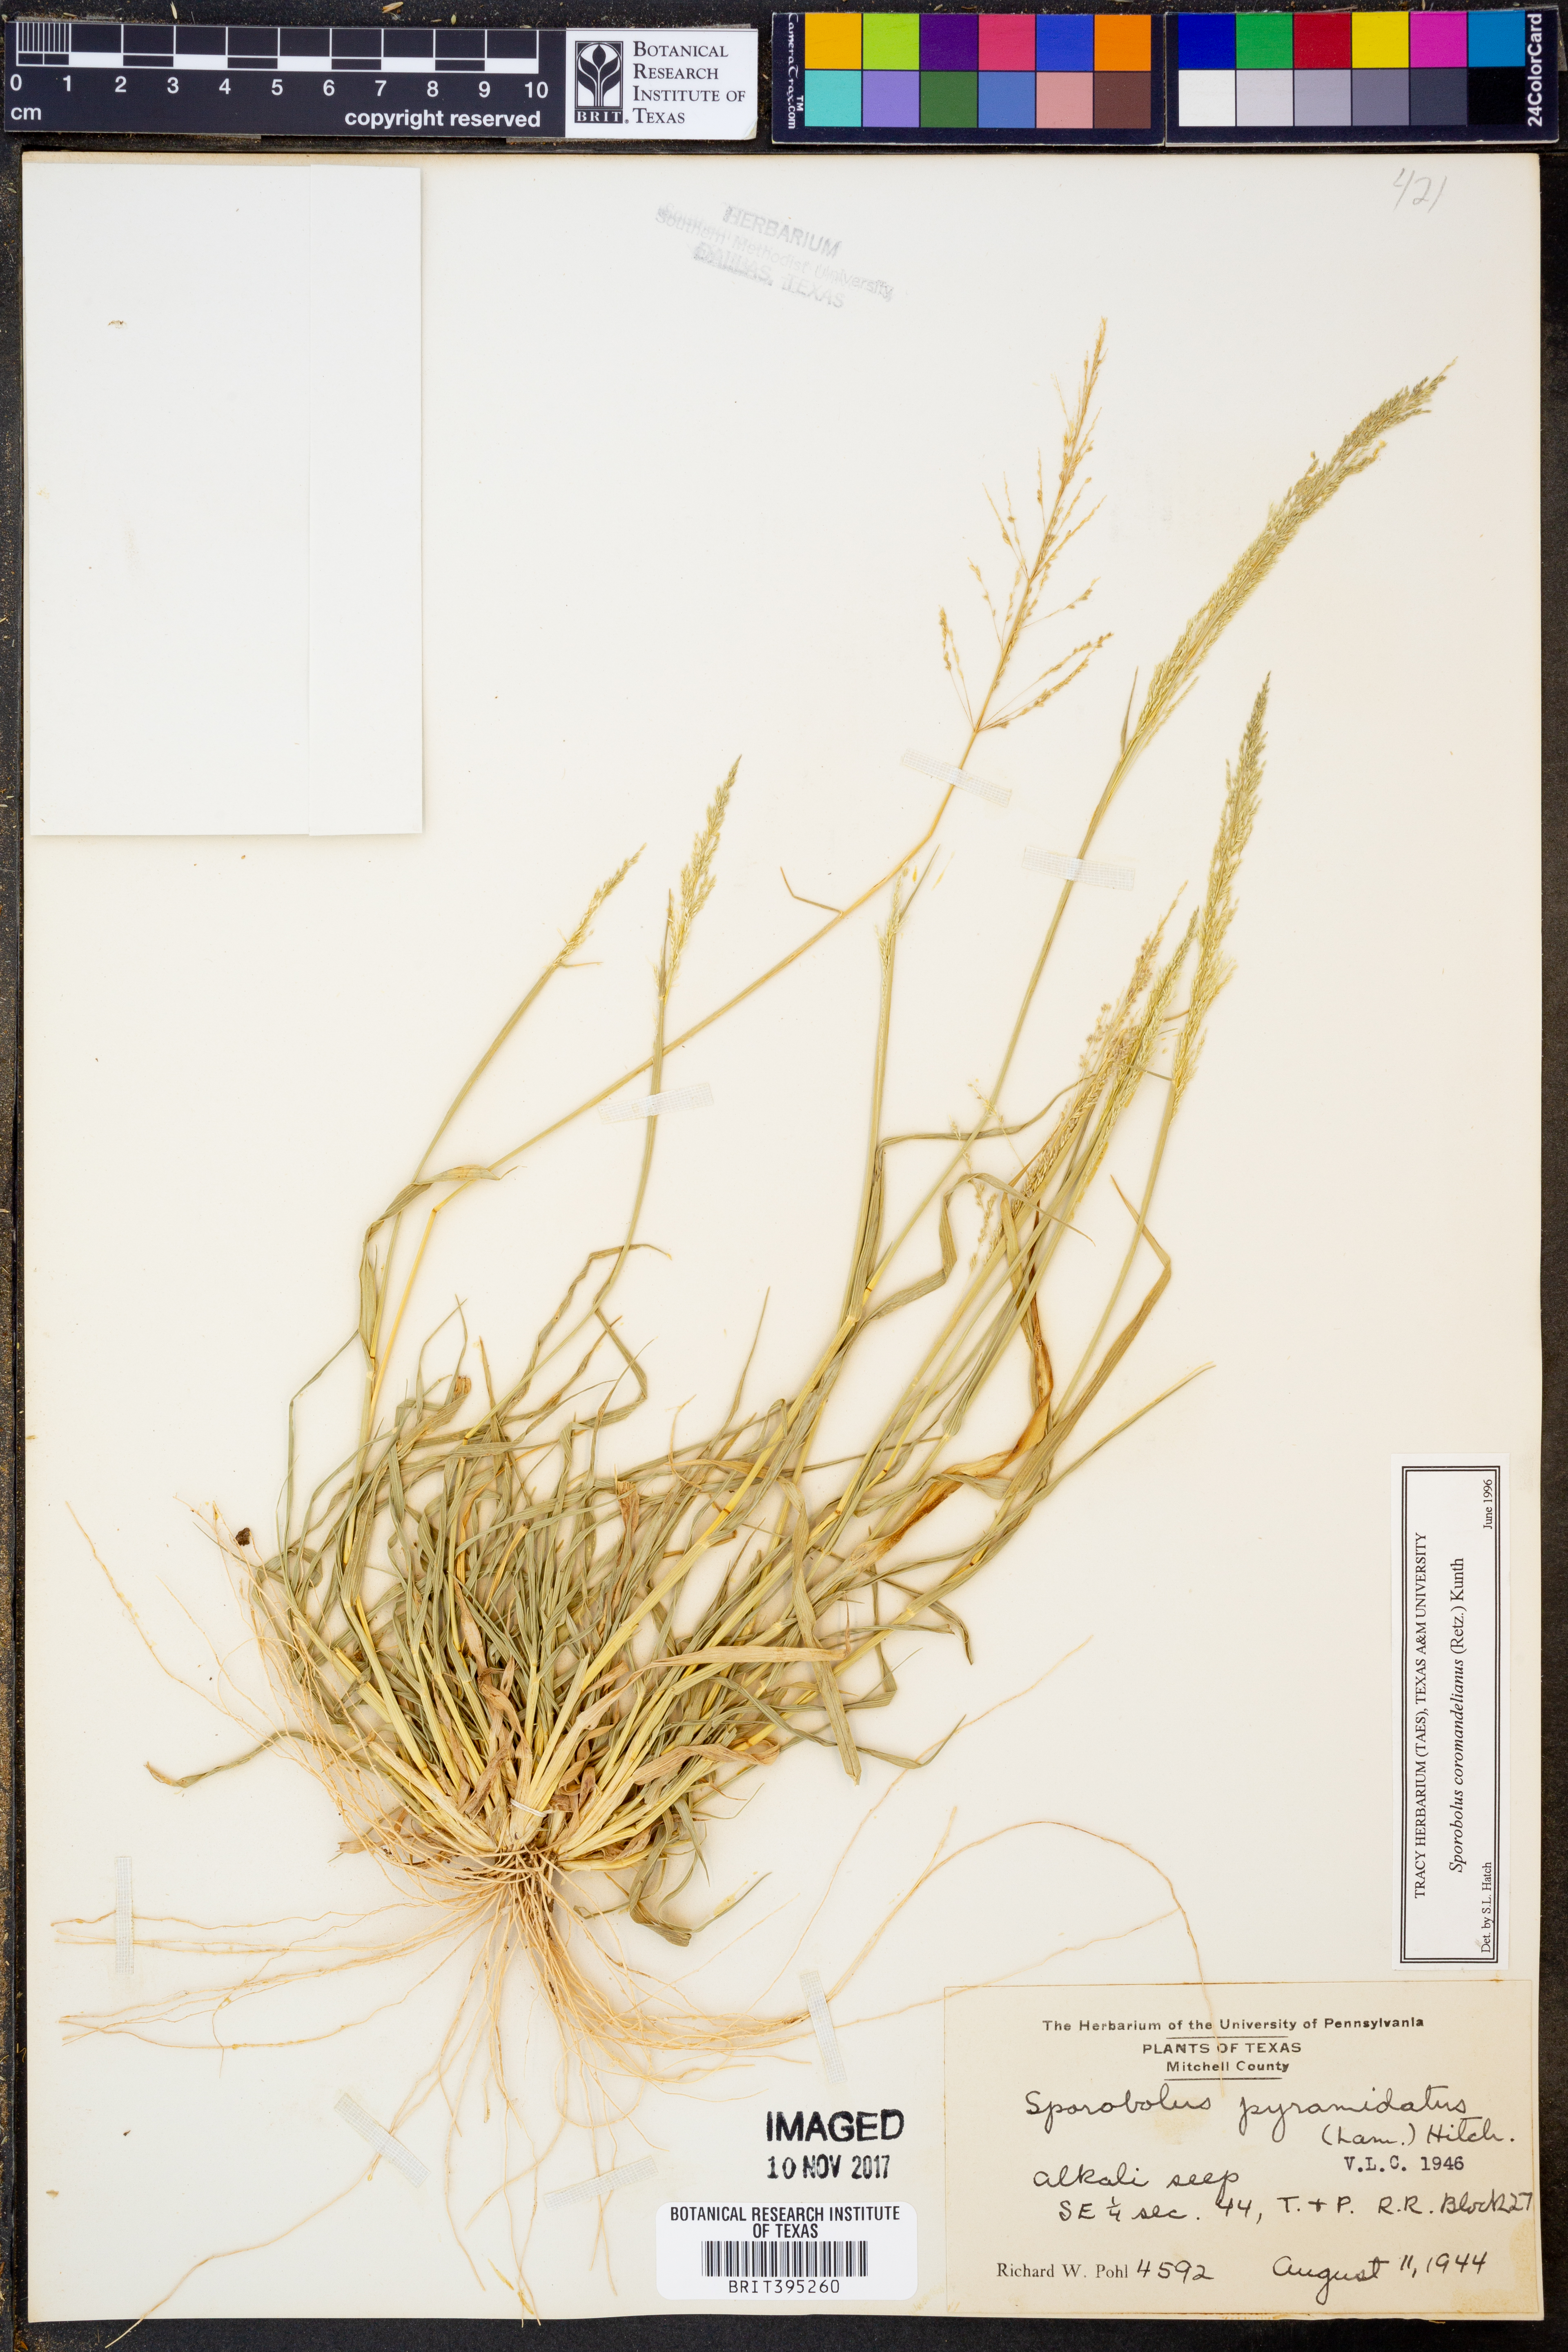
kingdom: Plantae
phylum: Tracheophyta
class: Liliopsida
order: Poales
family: Poaceae
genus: Sporobolus
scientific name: Sporobolus coromandelianus
